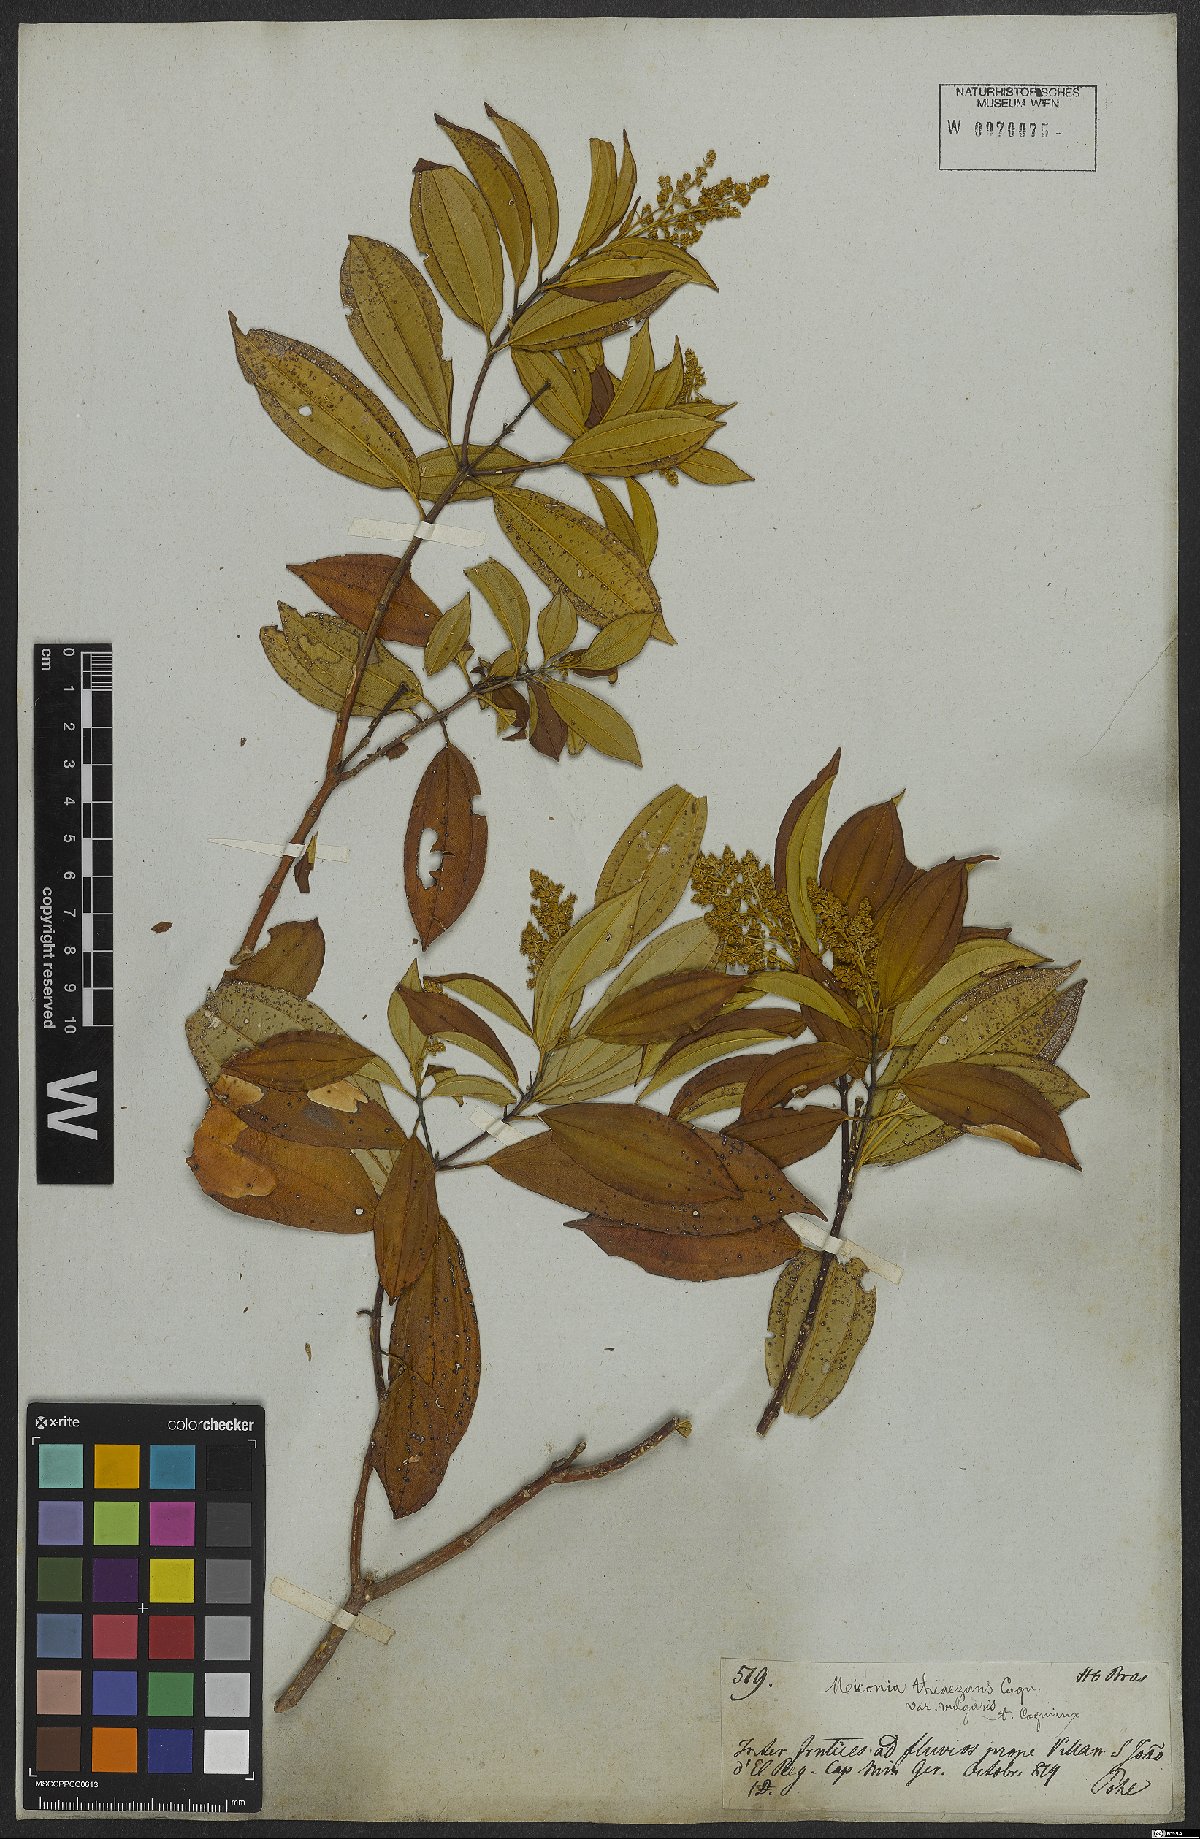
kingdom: Plantae
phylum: Tracheophyta
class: Magnoliopsida
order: Myrtales
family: Melastomataceae
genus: Miconia
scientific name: Miconia theizans
